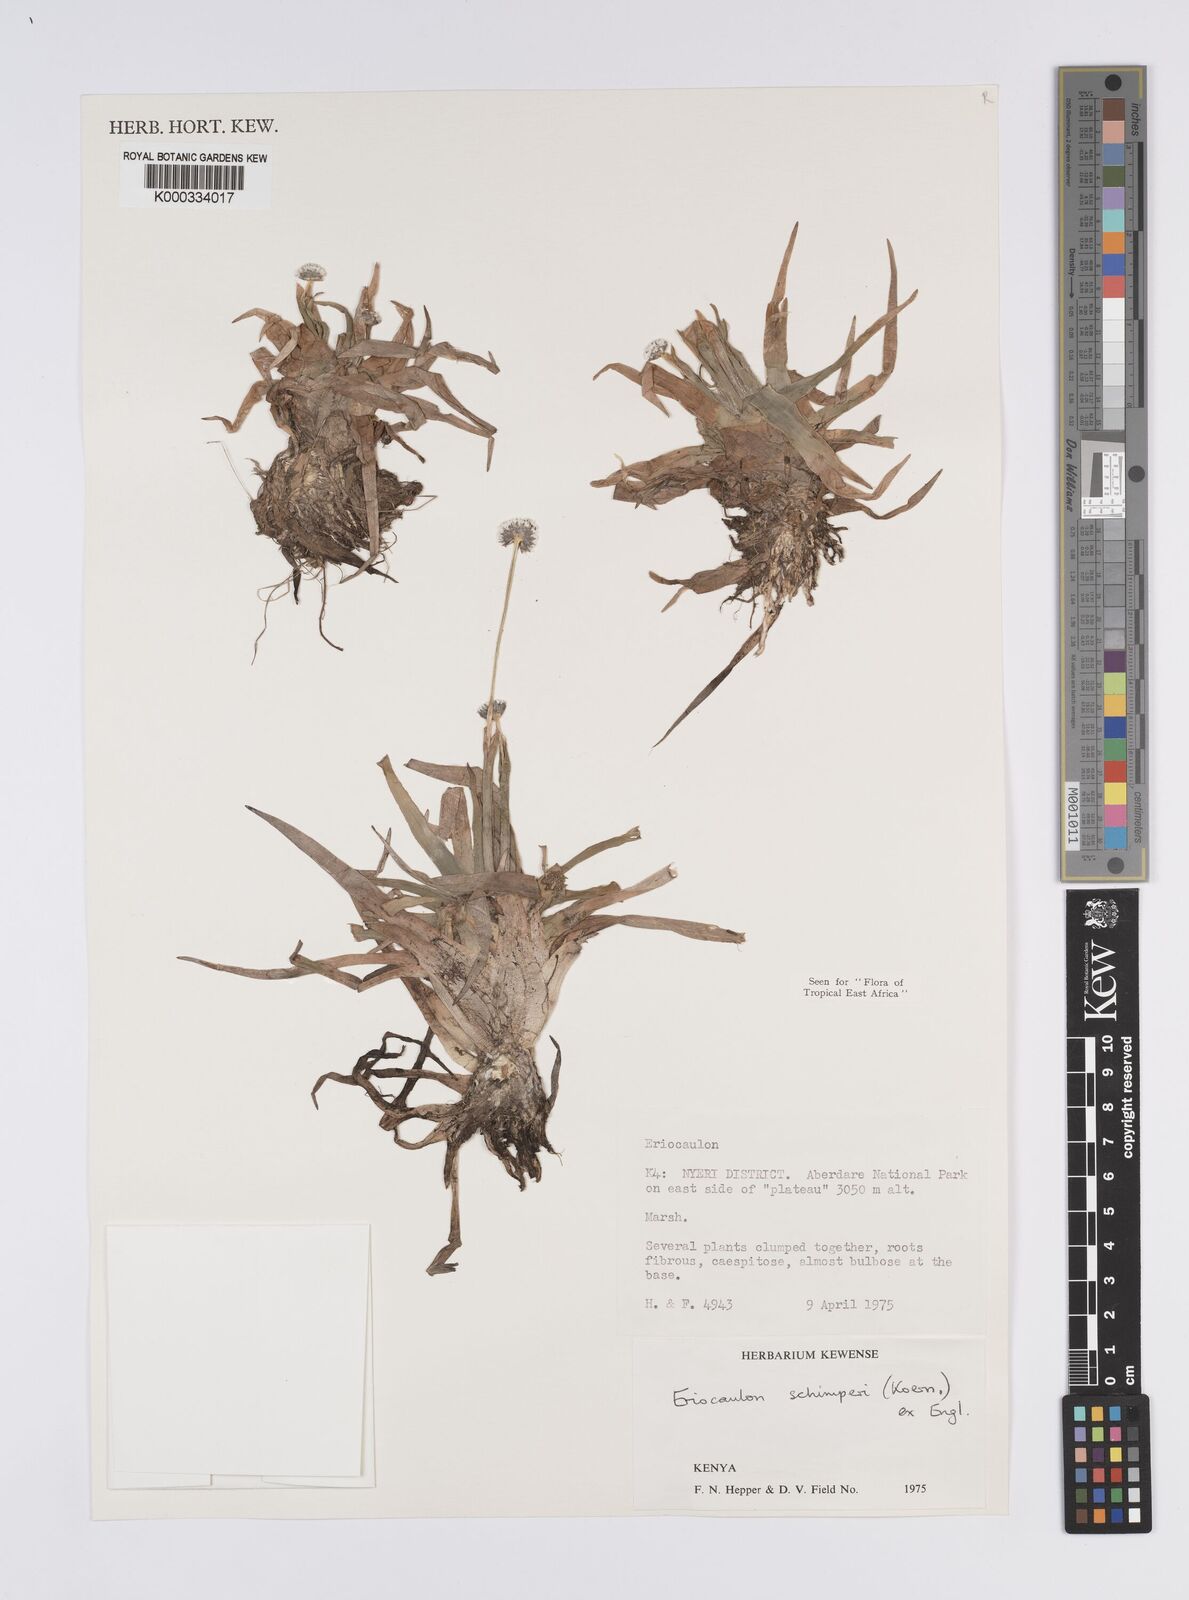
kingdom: Plantae
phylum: Tracheophyta
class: Liliopsida
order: Poales
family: Eriocaulaceae
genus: Eriocaulon
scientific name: Eriocaulon
